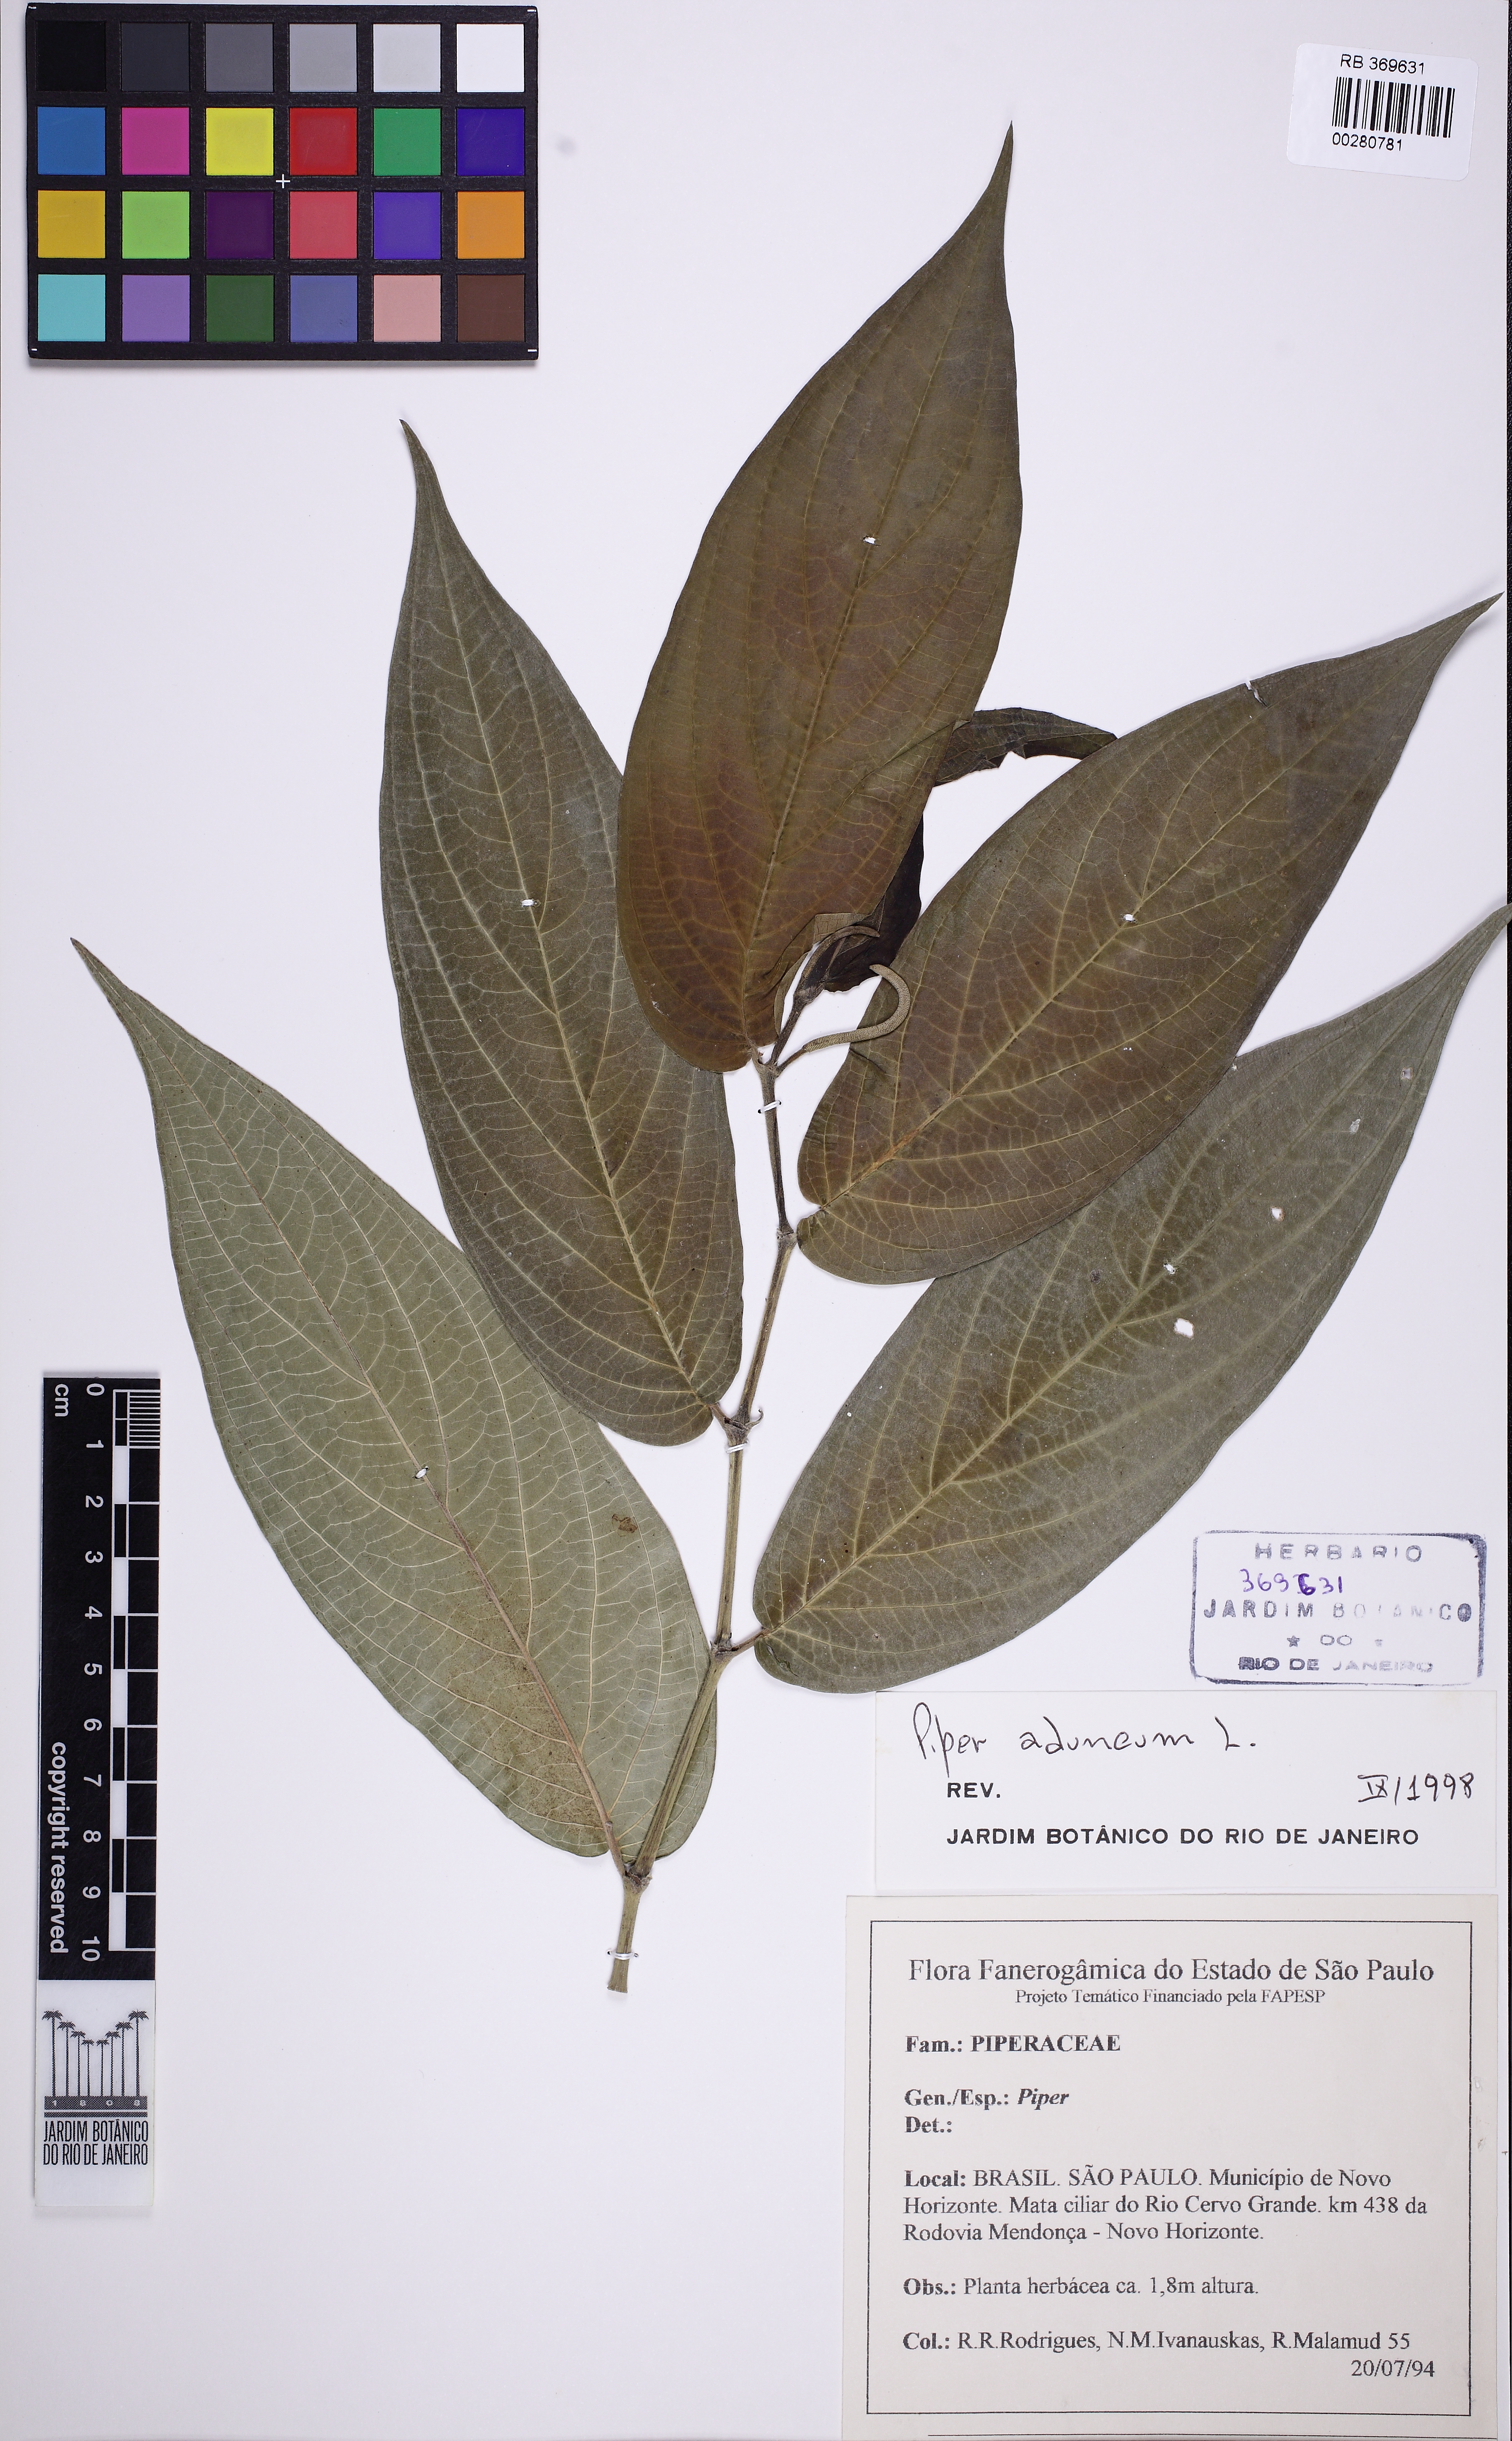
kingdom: Plantae
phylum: Tracheophyta
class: Magnoliopsida
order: Piperales
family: Piperaceae
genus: Piper
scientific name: Piper aduncum
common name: Spiked pepper
